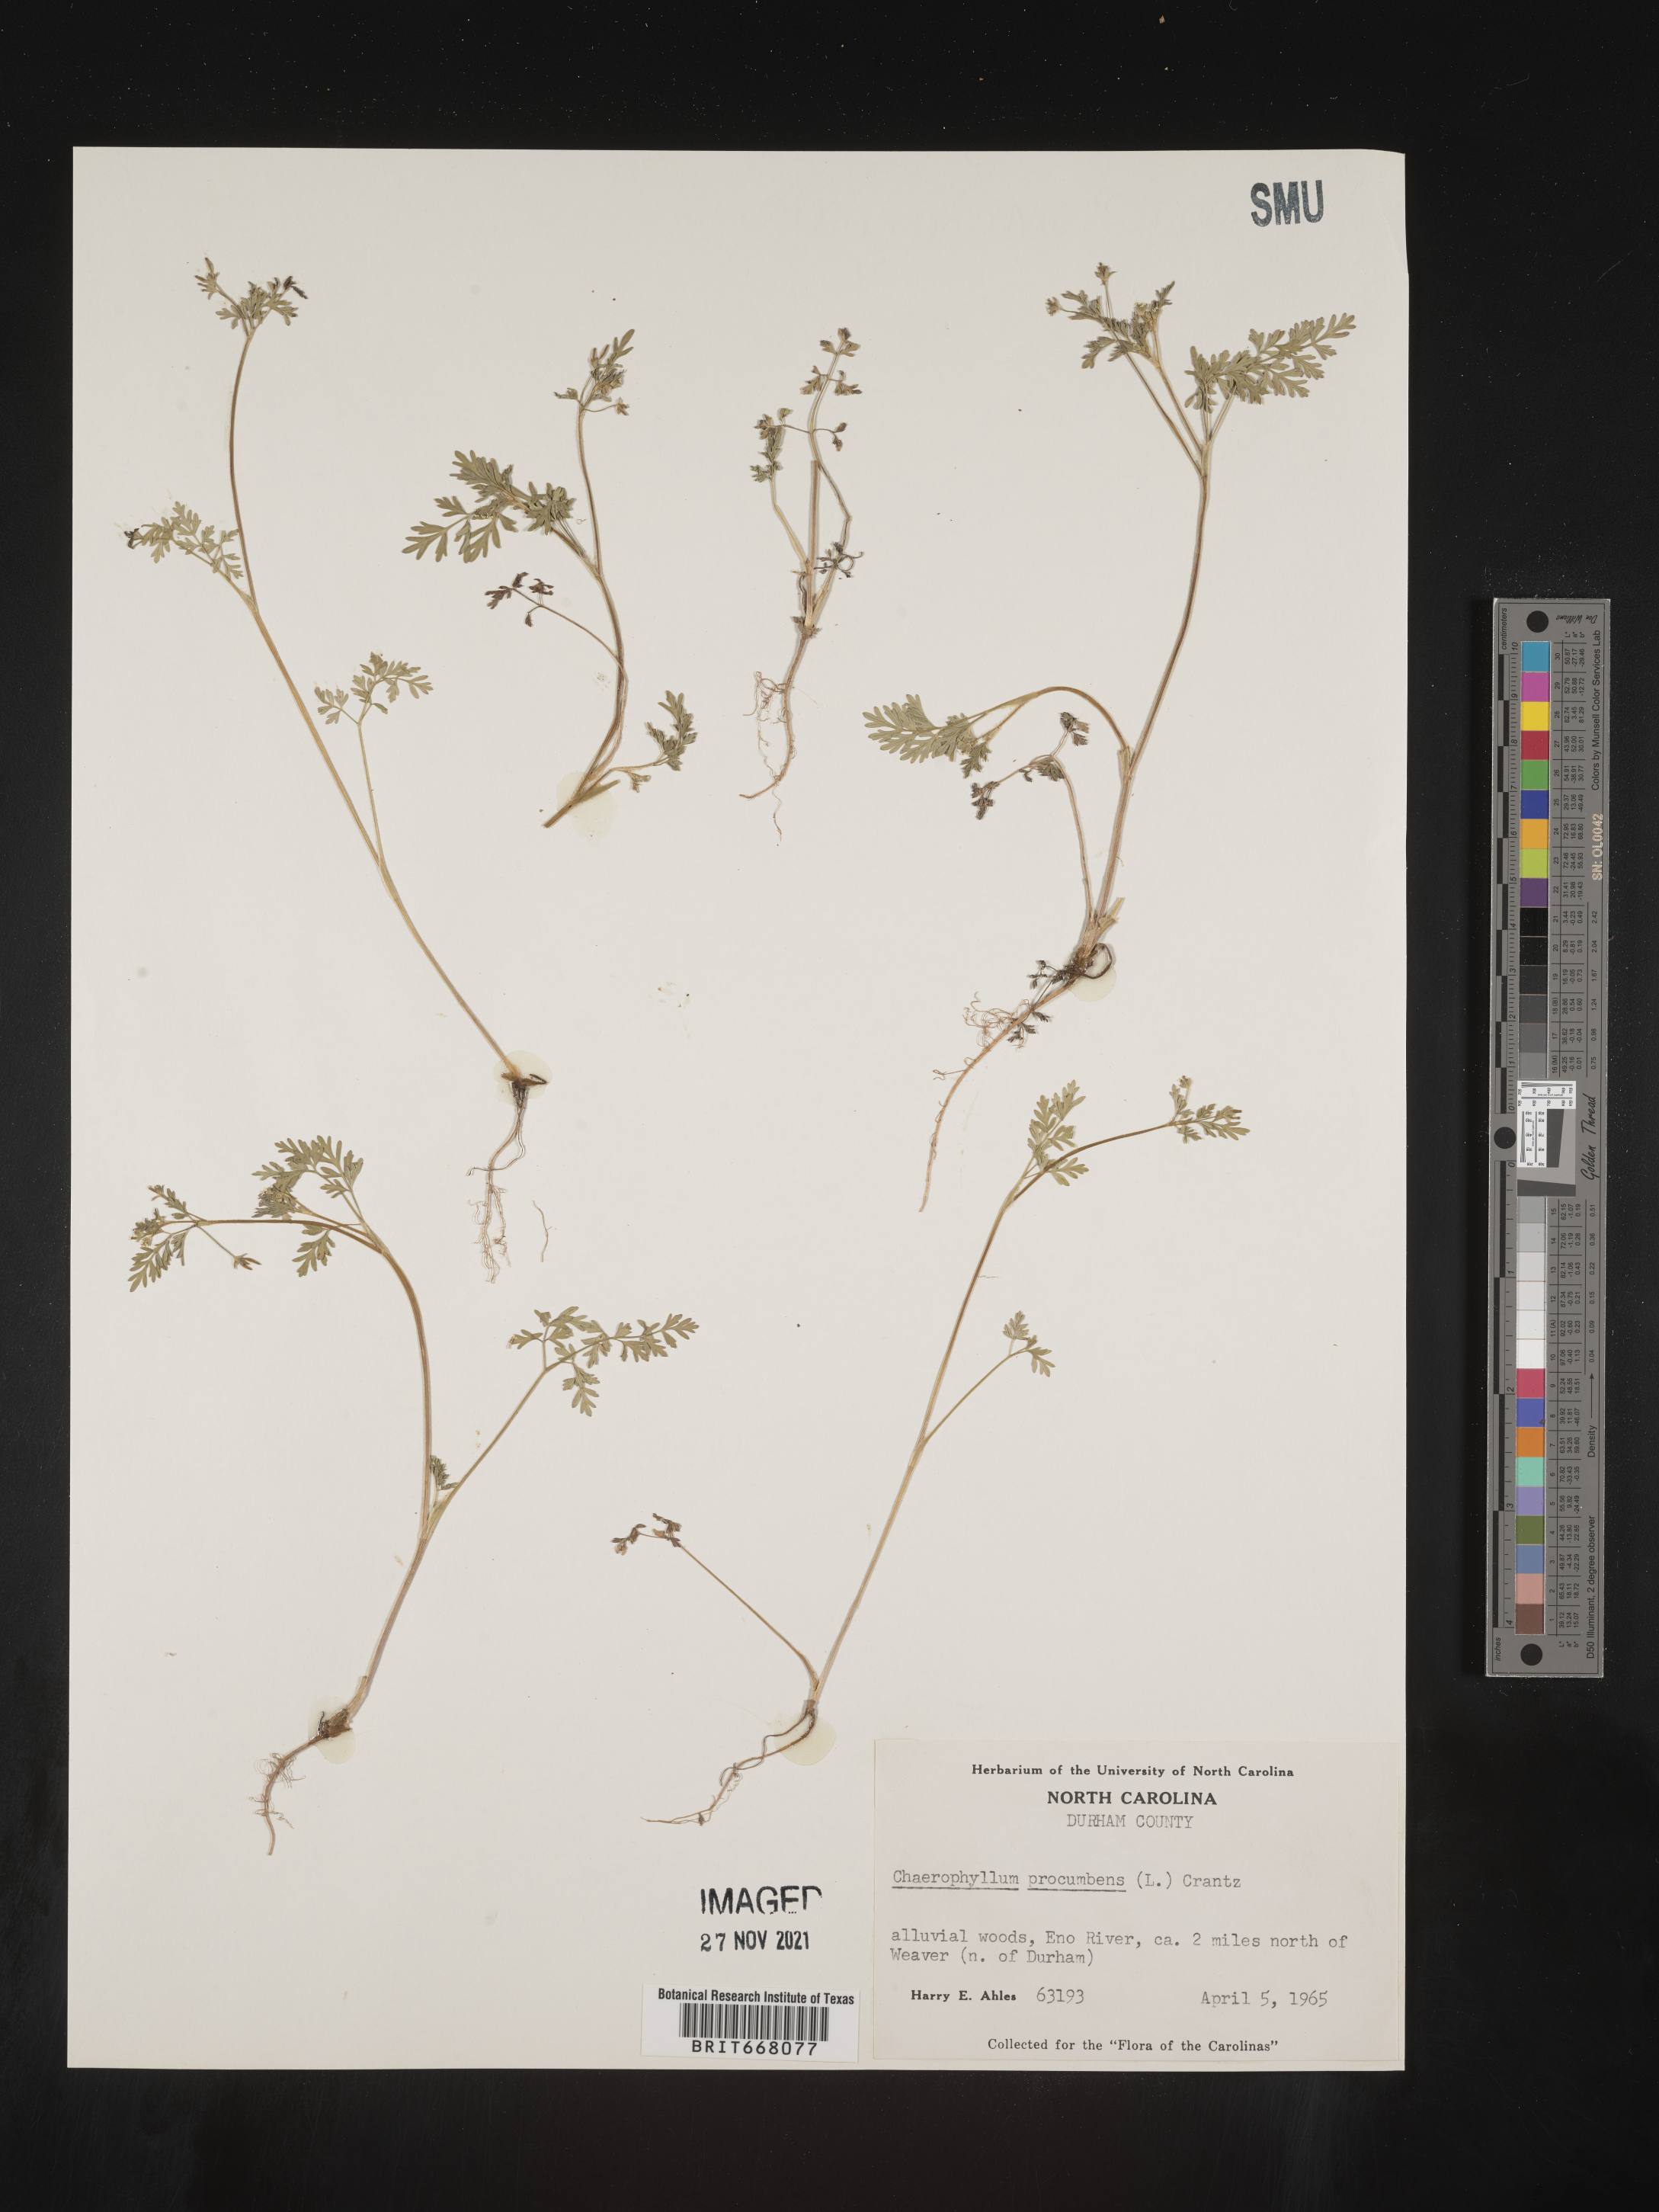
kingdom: Plantae
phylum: Tracheophyta
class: Magnoliopsida
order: Apiales
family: Apiaceae
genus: Chaerophyllum
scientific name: Chaerophyllum procumbens
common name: Spreading chervil
